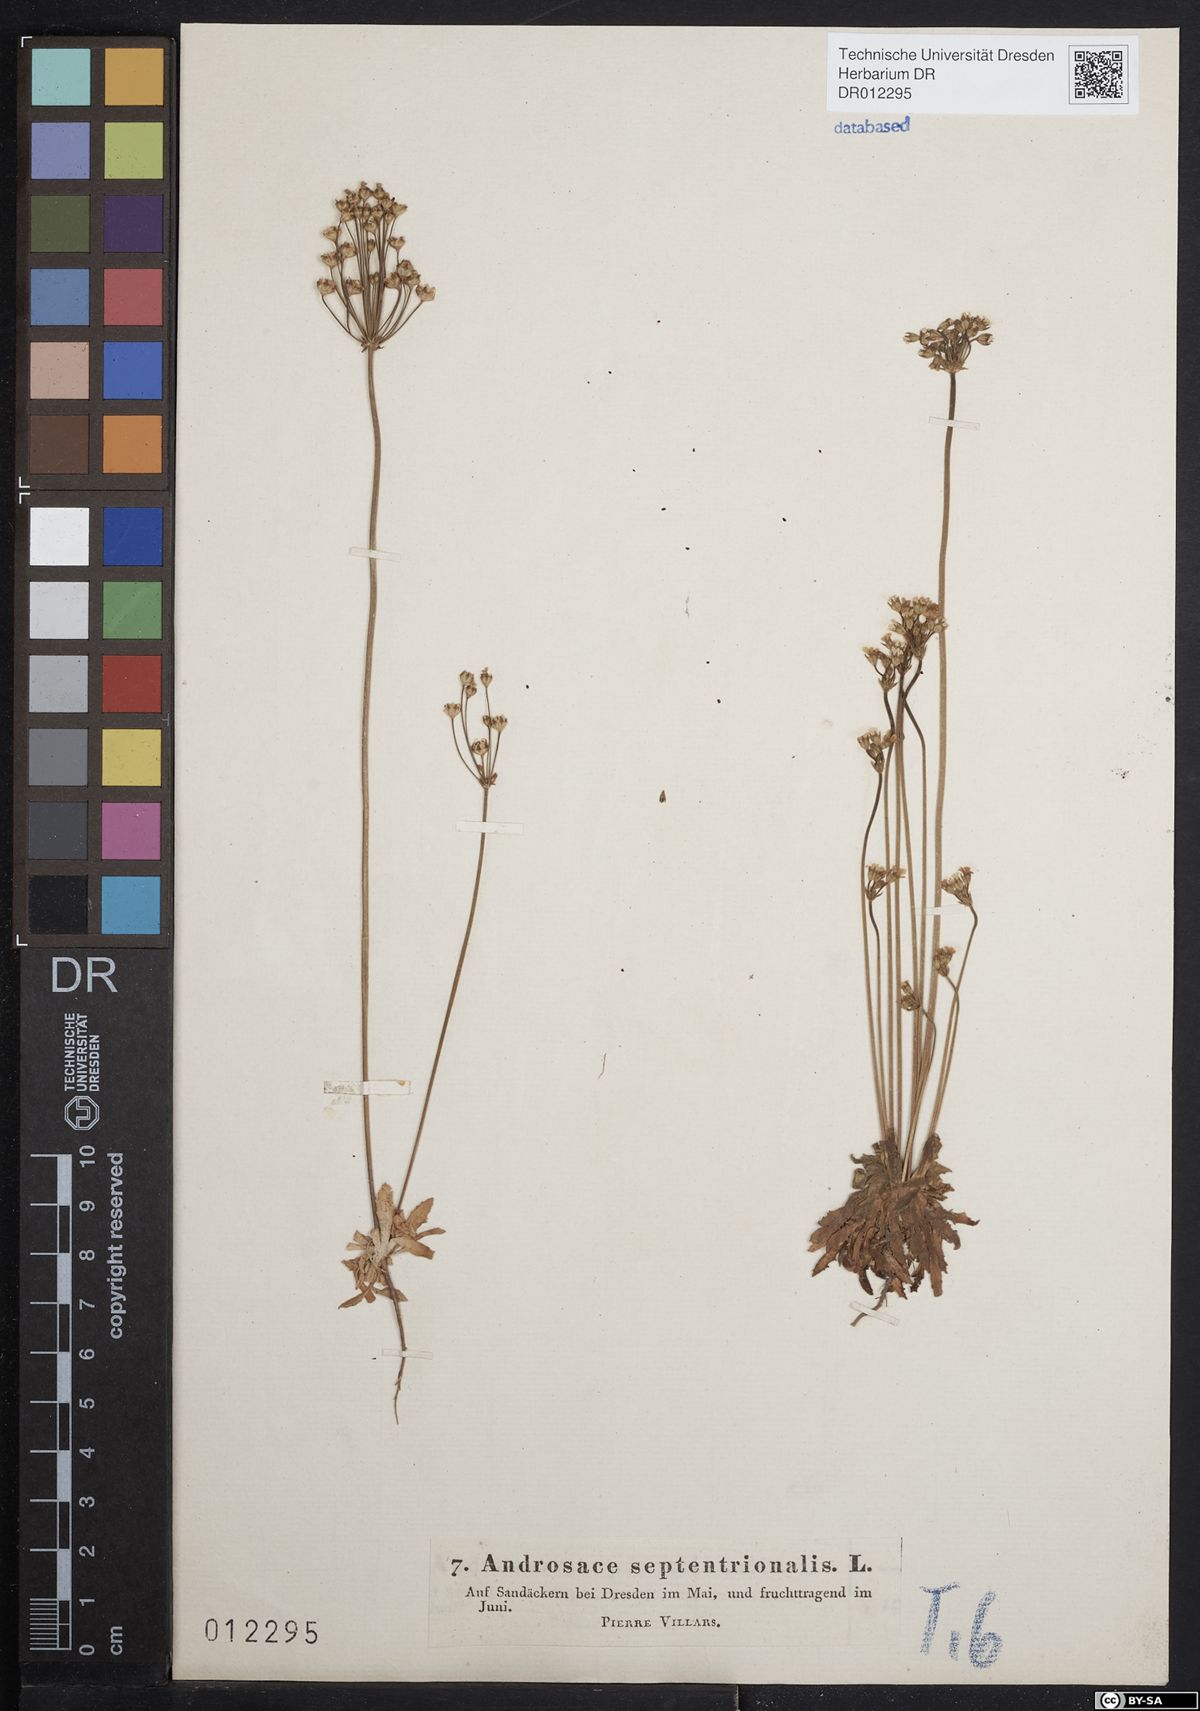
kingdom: Plantae
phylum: Tracheophyta
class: Magnoliopsida
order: Ericales
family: Primulaceae
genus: Androsace
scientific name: Androsace septentrionalis
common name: Hairy northern fairy-candelabra
